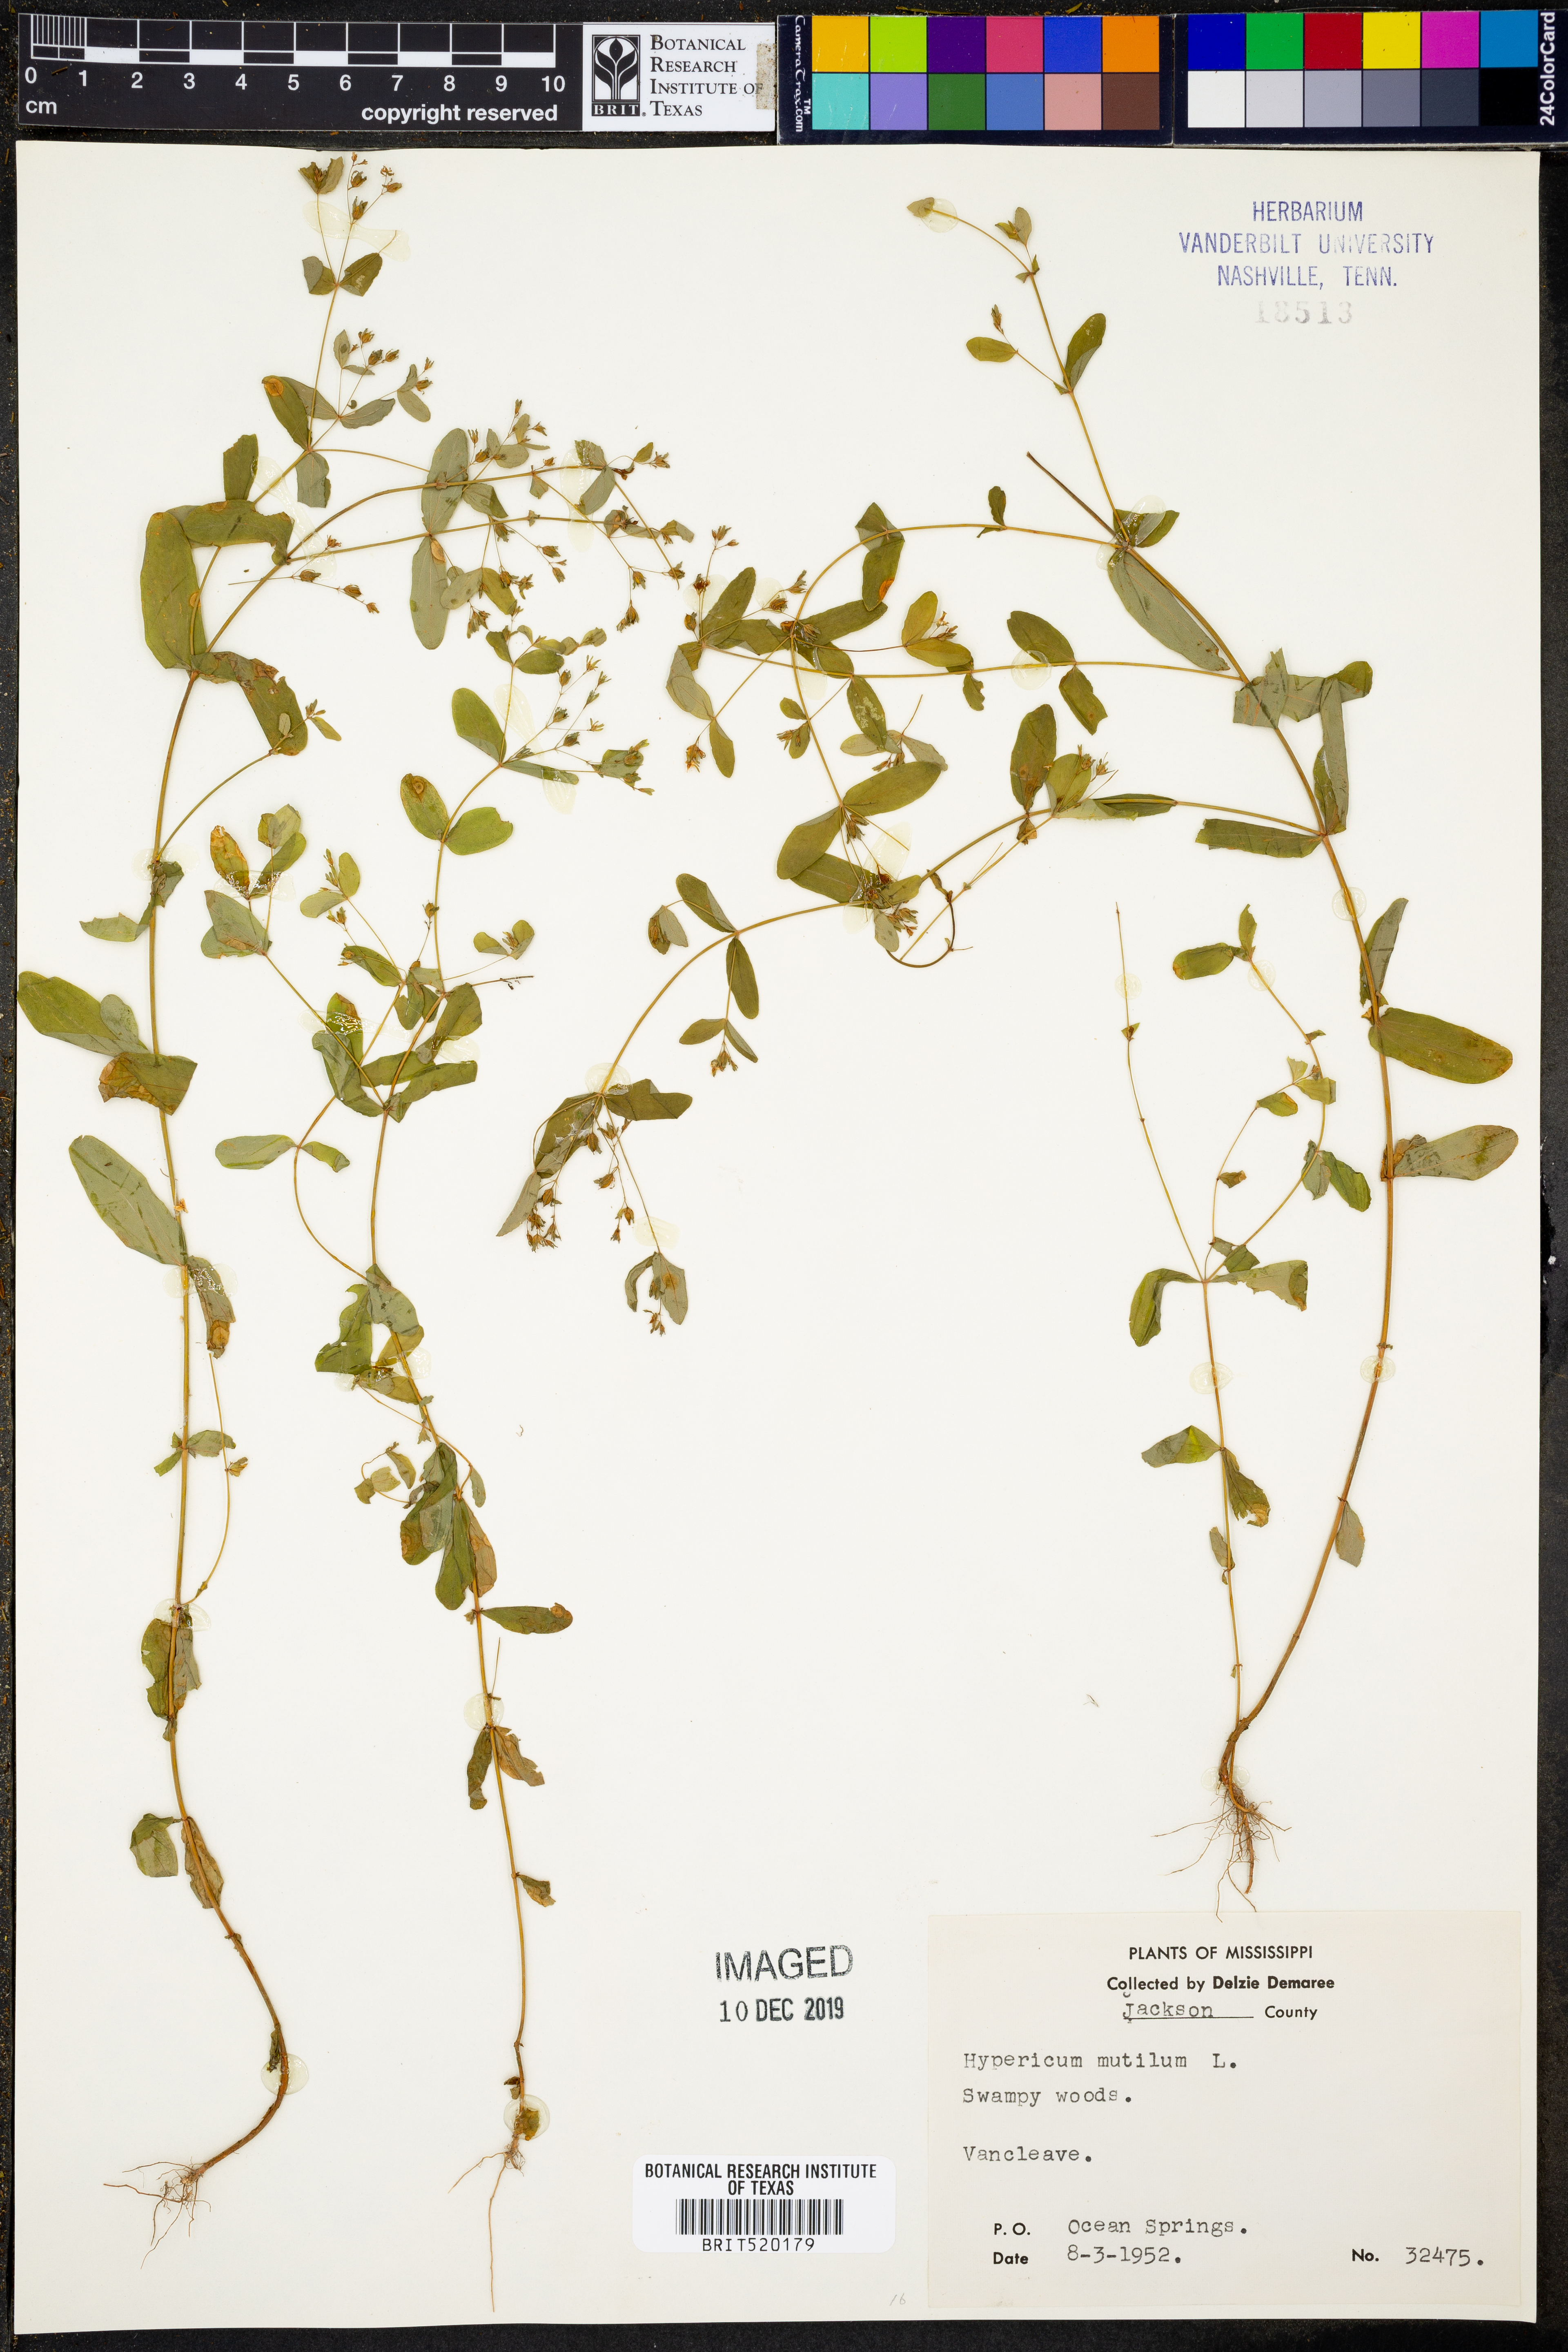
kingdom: Plantae
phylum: Tracheophyta
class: Magnoliopsida
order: Malpighiales
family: Hypericaceae
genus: Hypericum
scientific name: Hypericum mutilum
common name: Dwarf st. john's-wort
